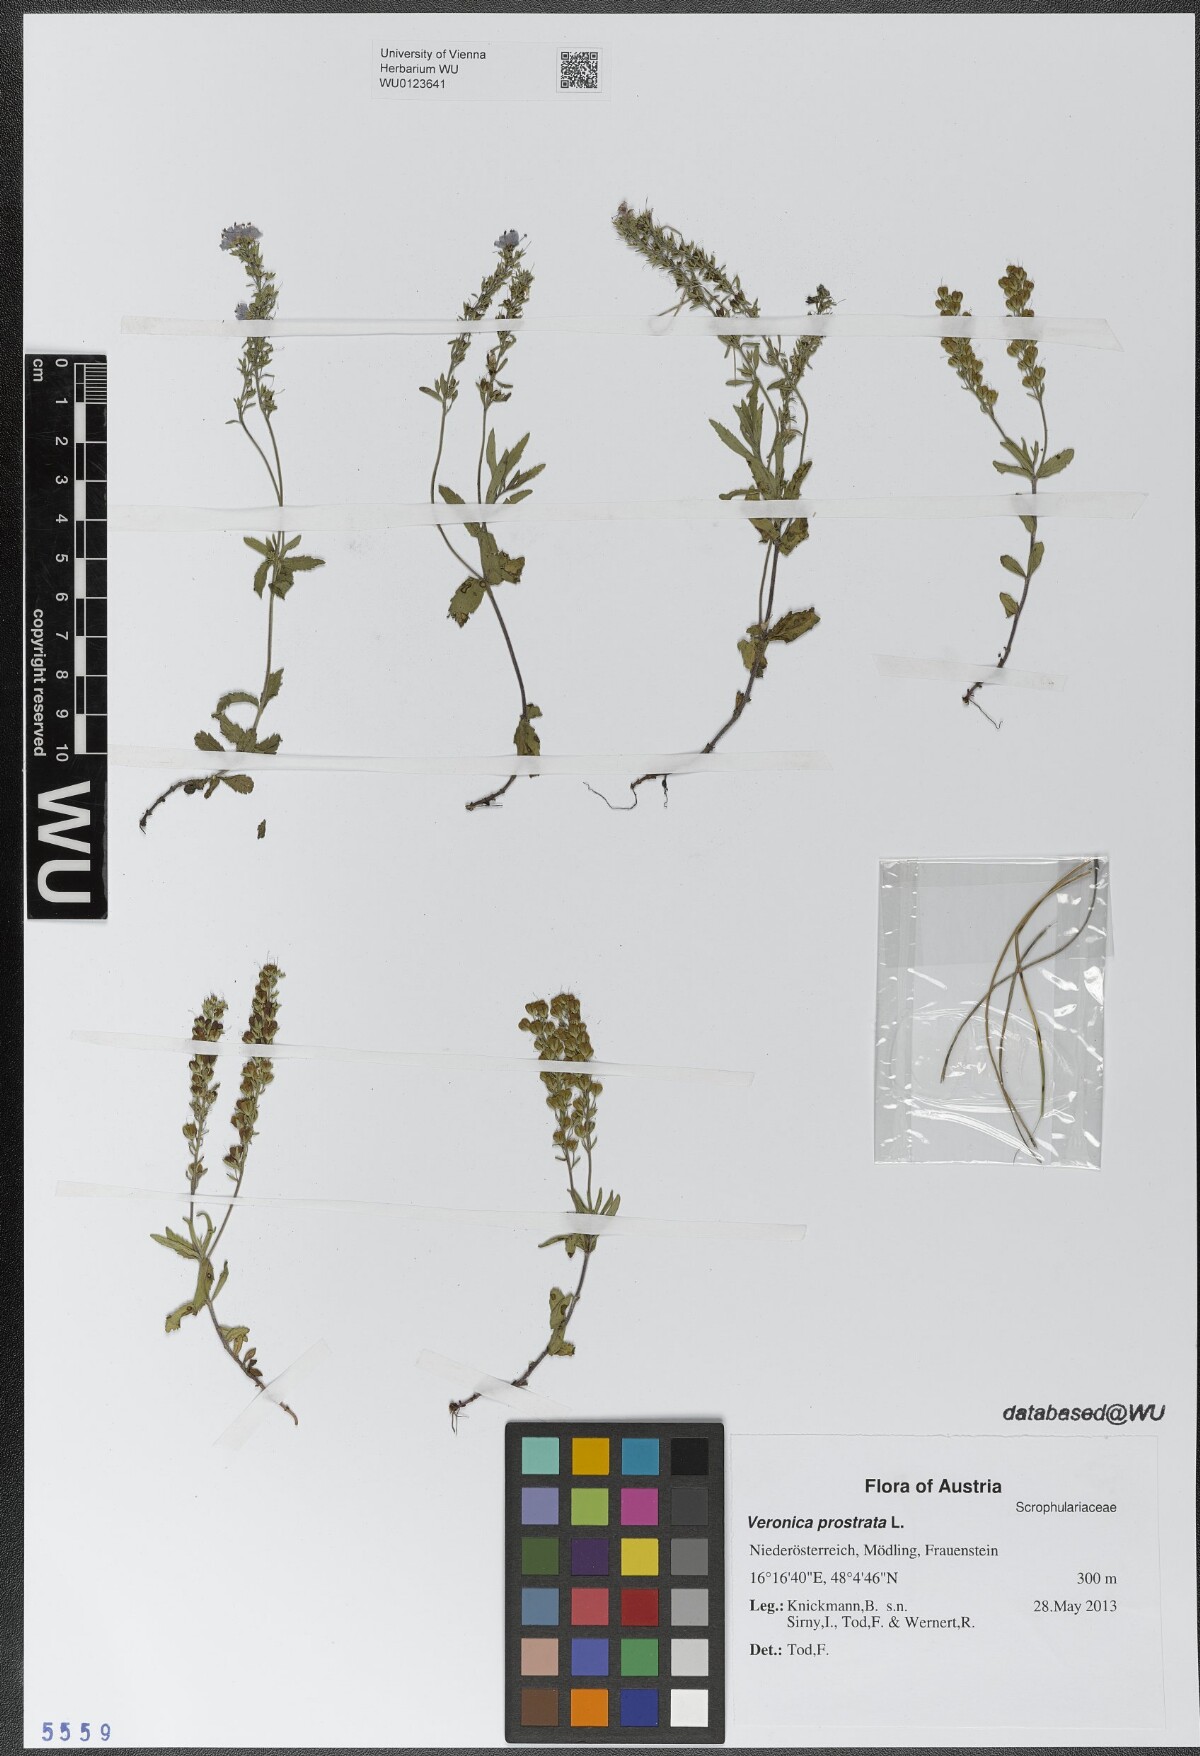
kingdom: Plantae
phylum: Tracheophyta
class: Magnoliopsida
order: Lamiales
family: Plantaginaceae
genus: Veronica
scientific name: Veronica prostrata
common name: Prostrate speedwell
